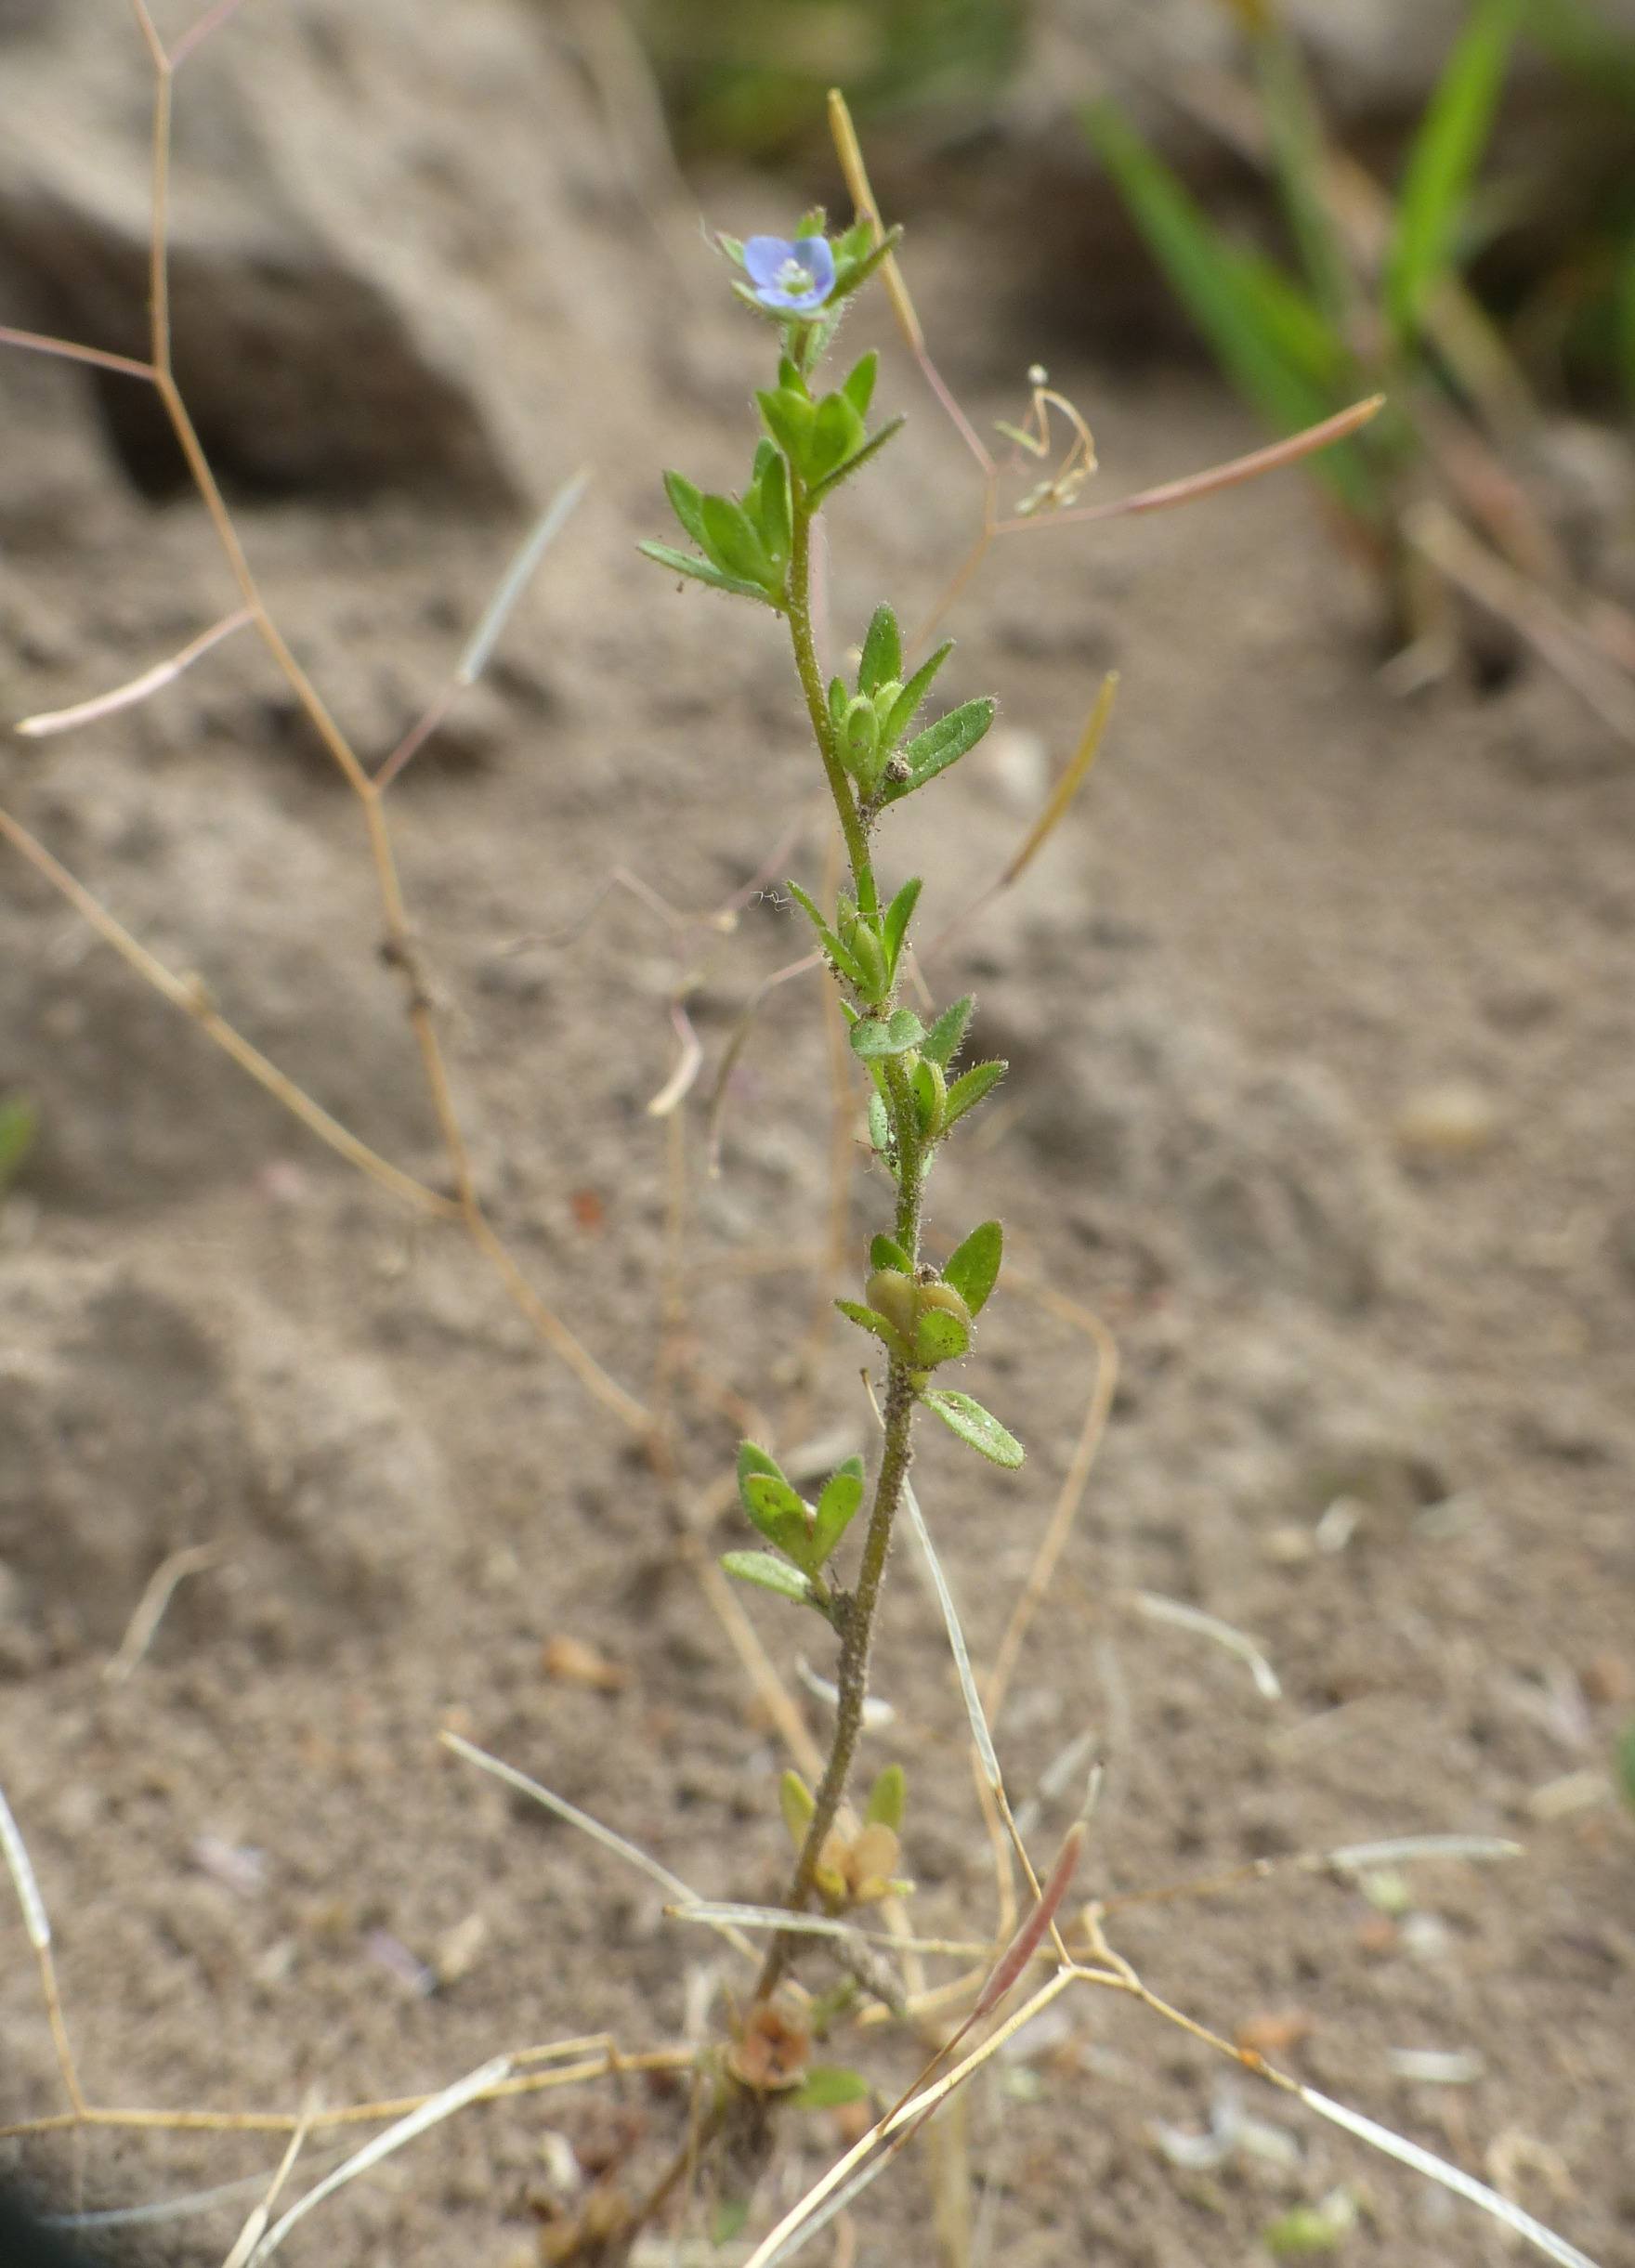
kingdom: Plantae
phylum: Tracheophyta
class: Magnoliopsida
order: Lamiales
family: Plantaginaceae
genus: Veronica
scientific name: Veronica arvensis
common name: Mark-ærenpris
